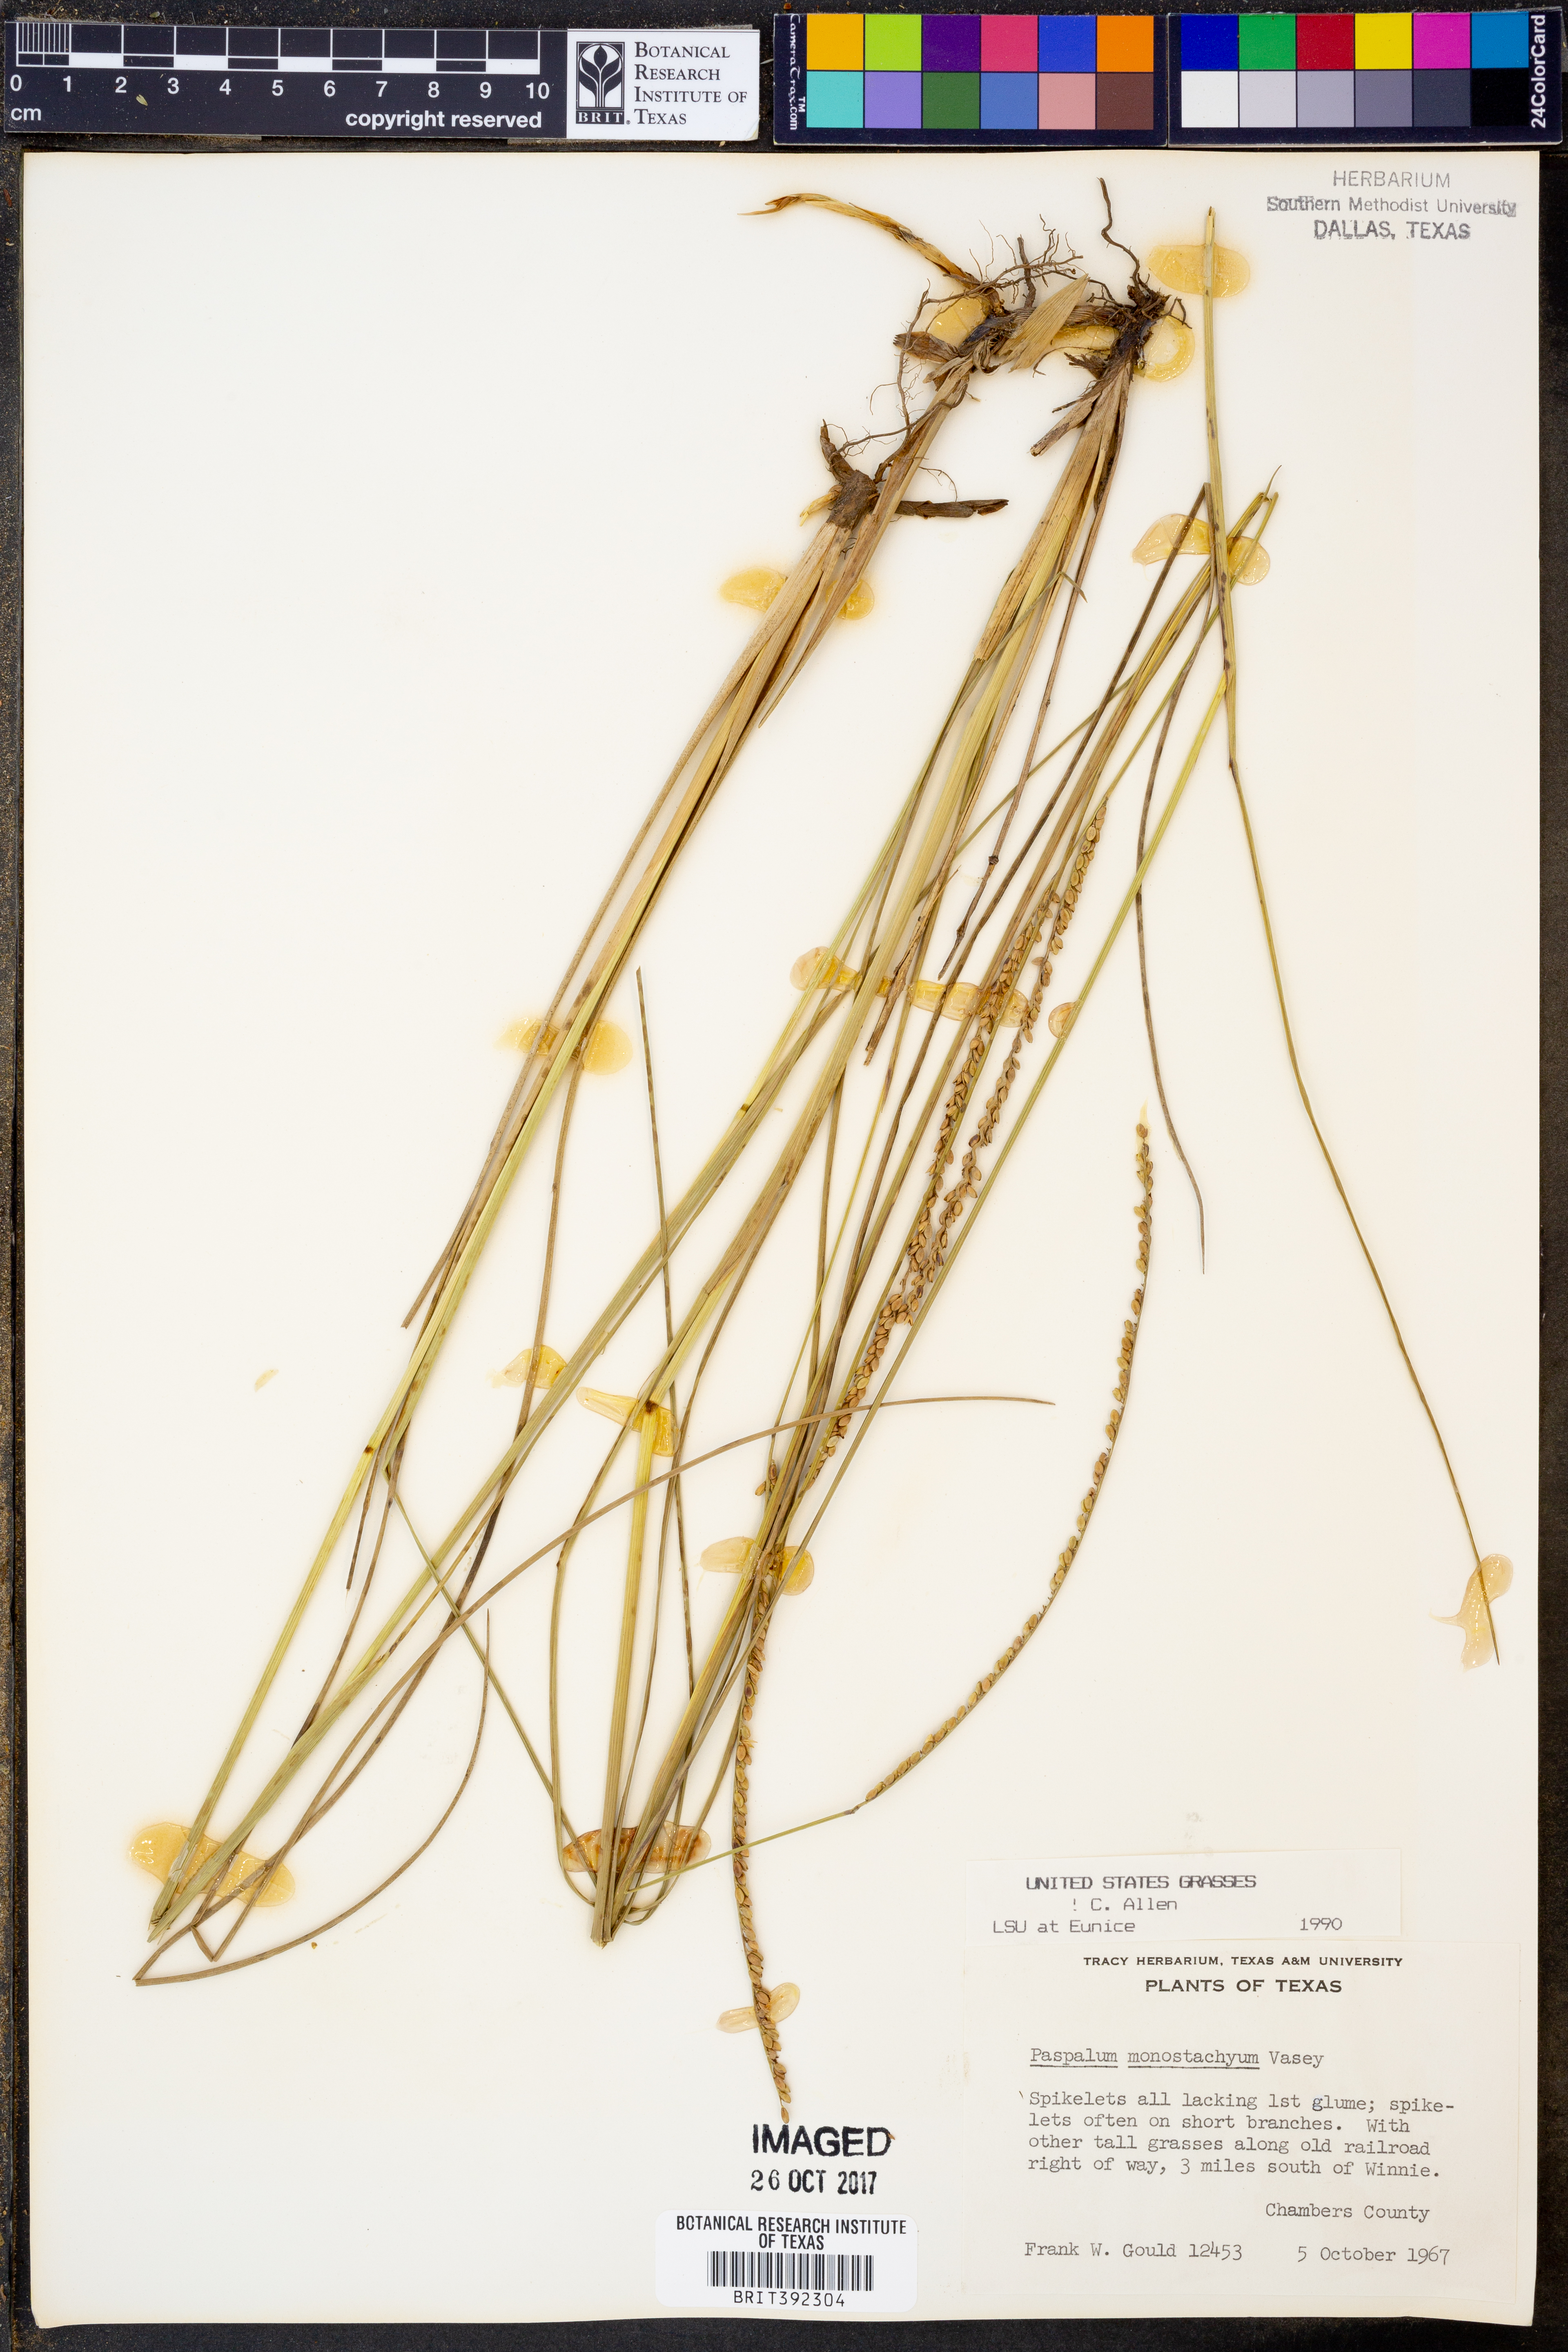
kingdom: Plantae
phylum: Tracheophyta
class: Liliopsida
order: Poales
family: Poaceae
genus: Paspalum
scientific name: Paspalum monostachyum
